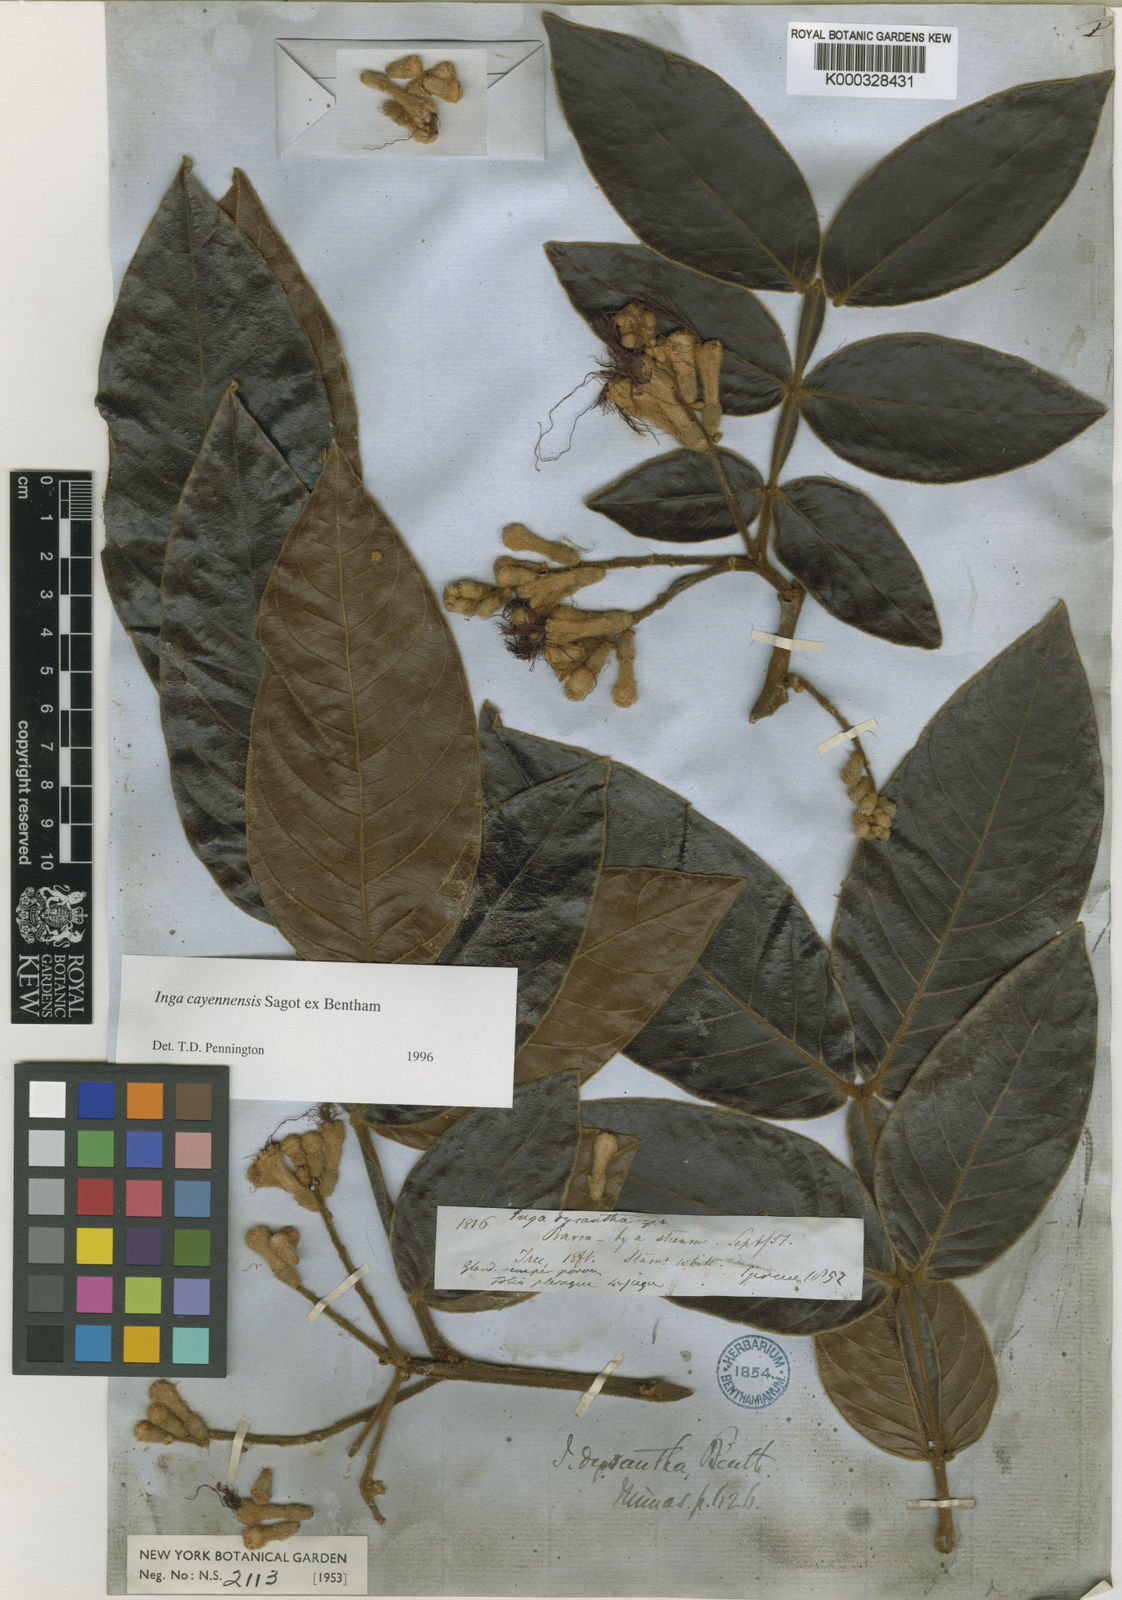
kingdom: Plantae
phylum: Tracheophyta
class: Magnoliopsida
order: Fabales
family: Fabaceae
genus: Inga
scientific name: Inga cayennensis
